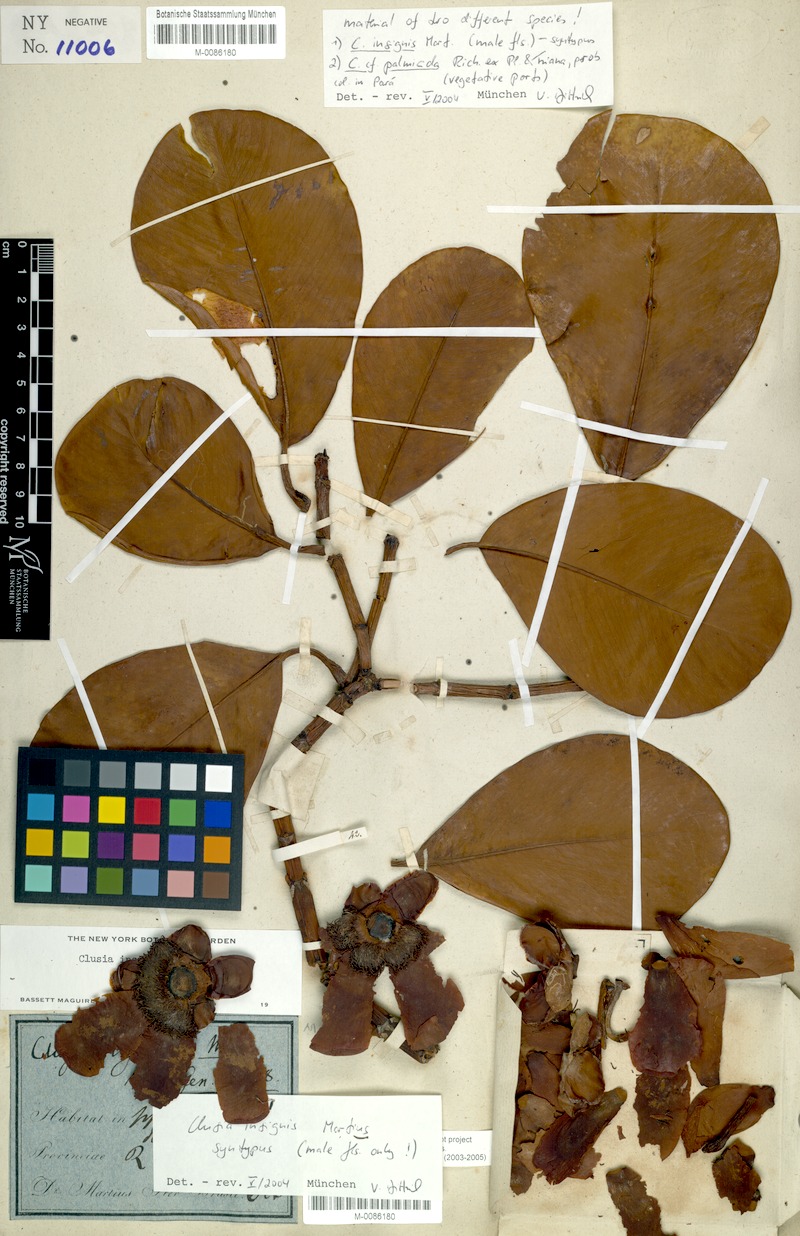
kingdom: Plantae
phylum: Tracheophyta
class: Magnoliopsida
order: Malpighiales
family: Clusiaceae
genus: Clusia
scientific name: Clusia insignis
